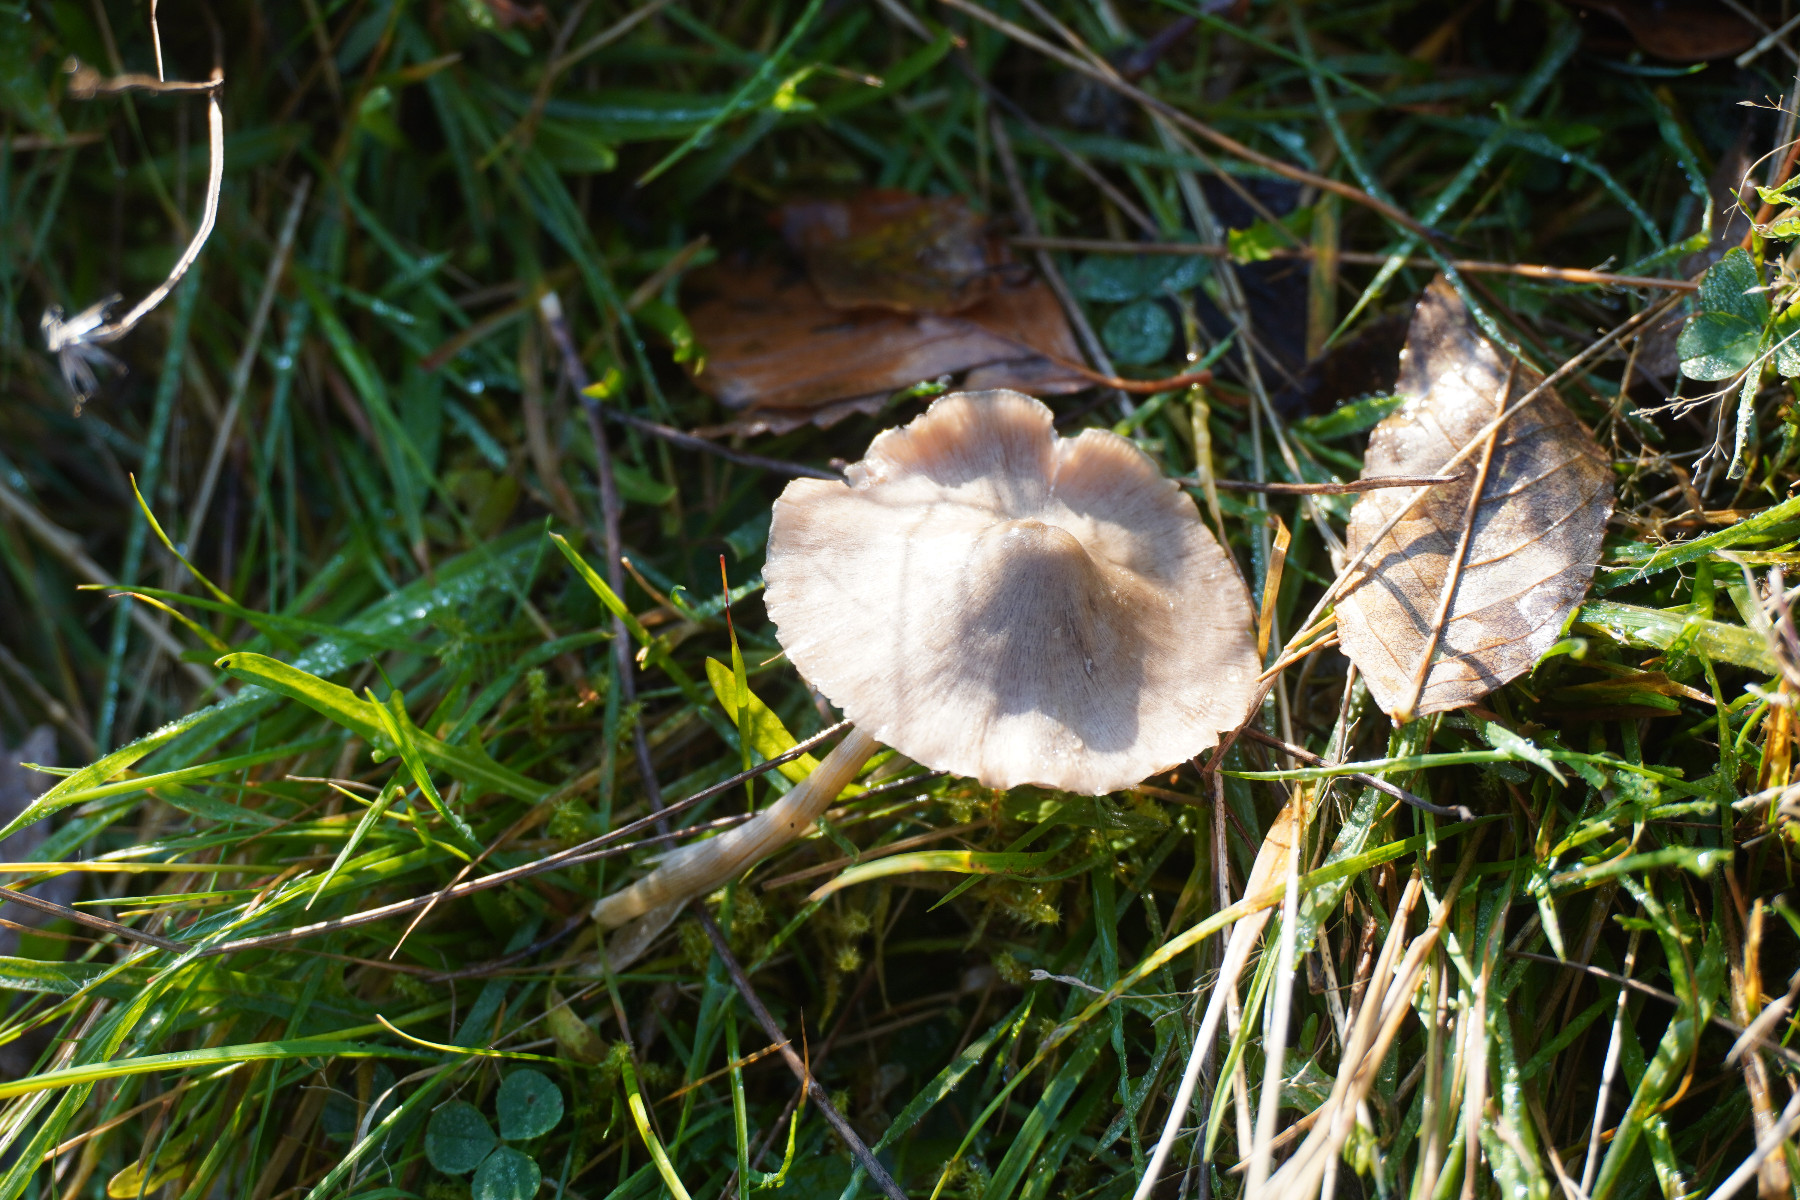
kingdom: Fungi
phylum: Basidiomycota
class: Agaricomycetes
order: Agaricales
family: Entolomataceae
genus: Entoloma
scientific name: Entoloma conferendum
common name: stjernesporet rødblad
